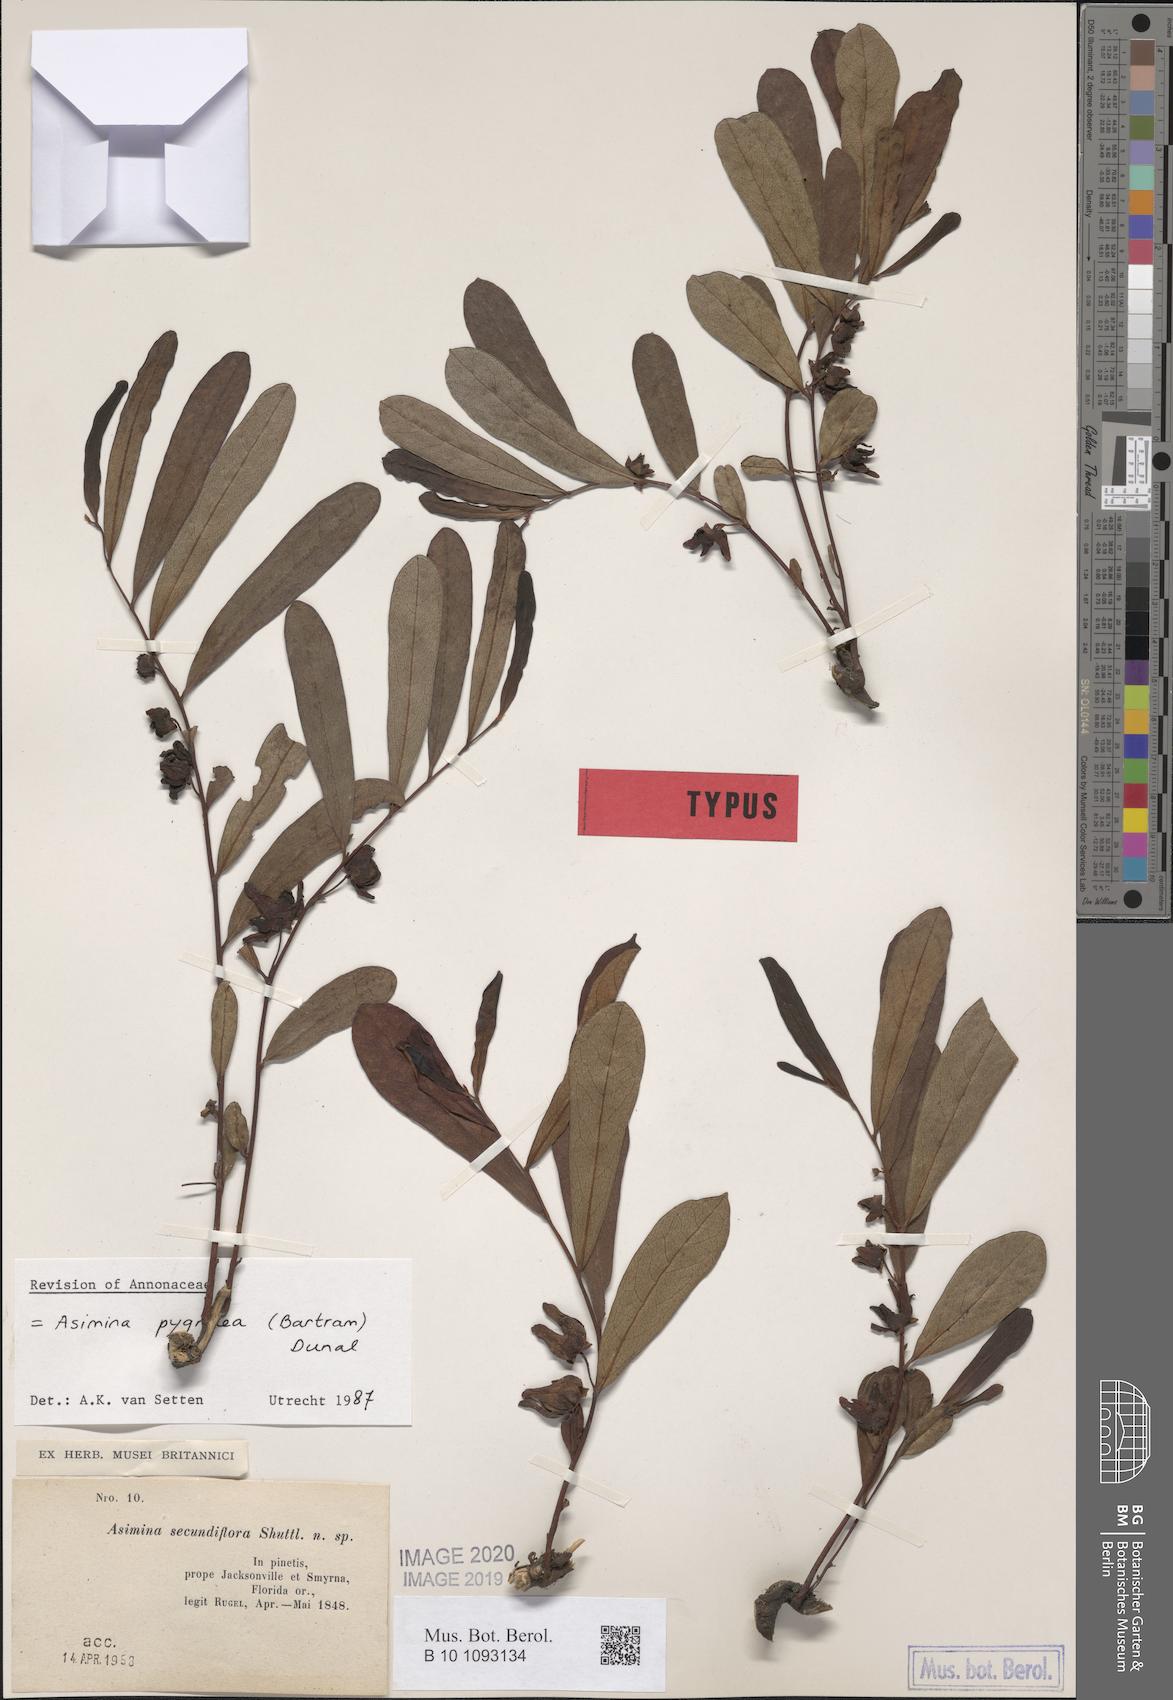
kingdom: Plantae
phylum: Tracheophyta
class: Magnoliopsida
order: Magnoliales
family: Annonaceae
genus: Asimina
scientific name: Asimina pygmaea
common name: Dwarf pawpaw
